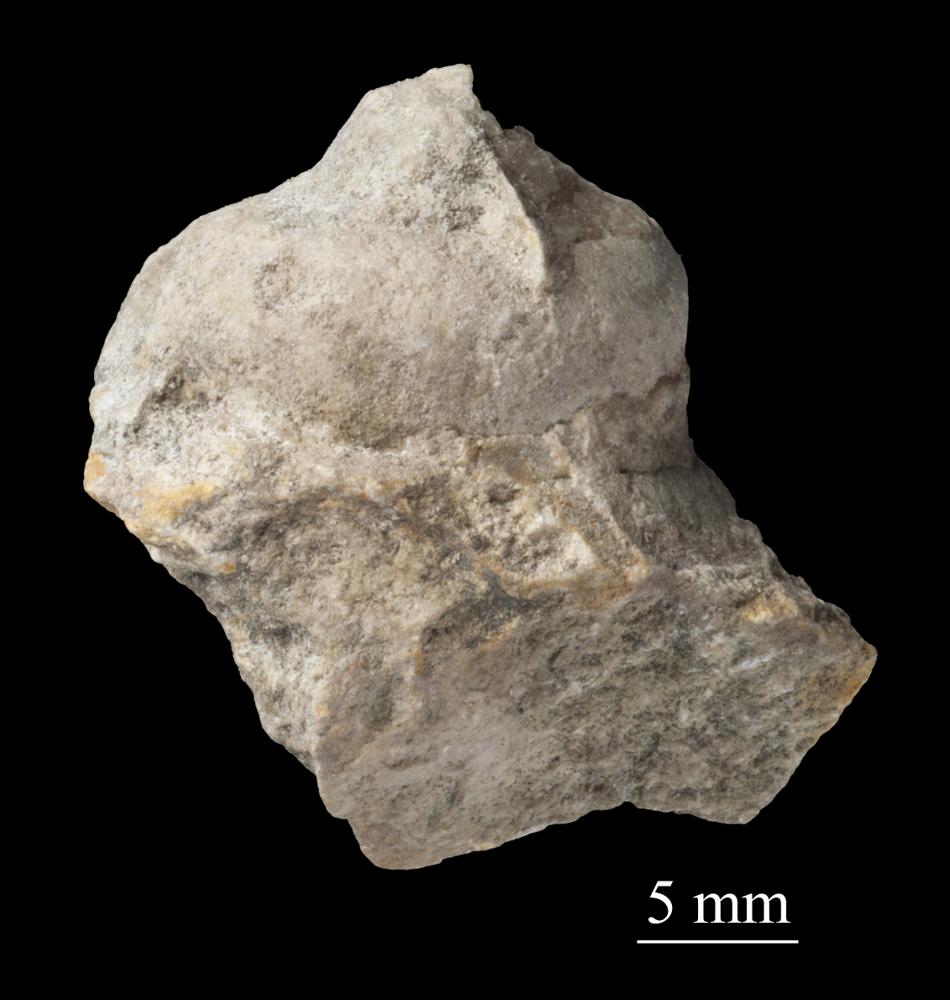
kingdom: Animalia
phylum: Mollusca
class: Gastropoda
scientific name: Gastropoda
